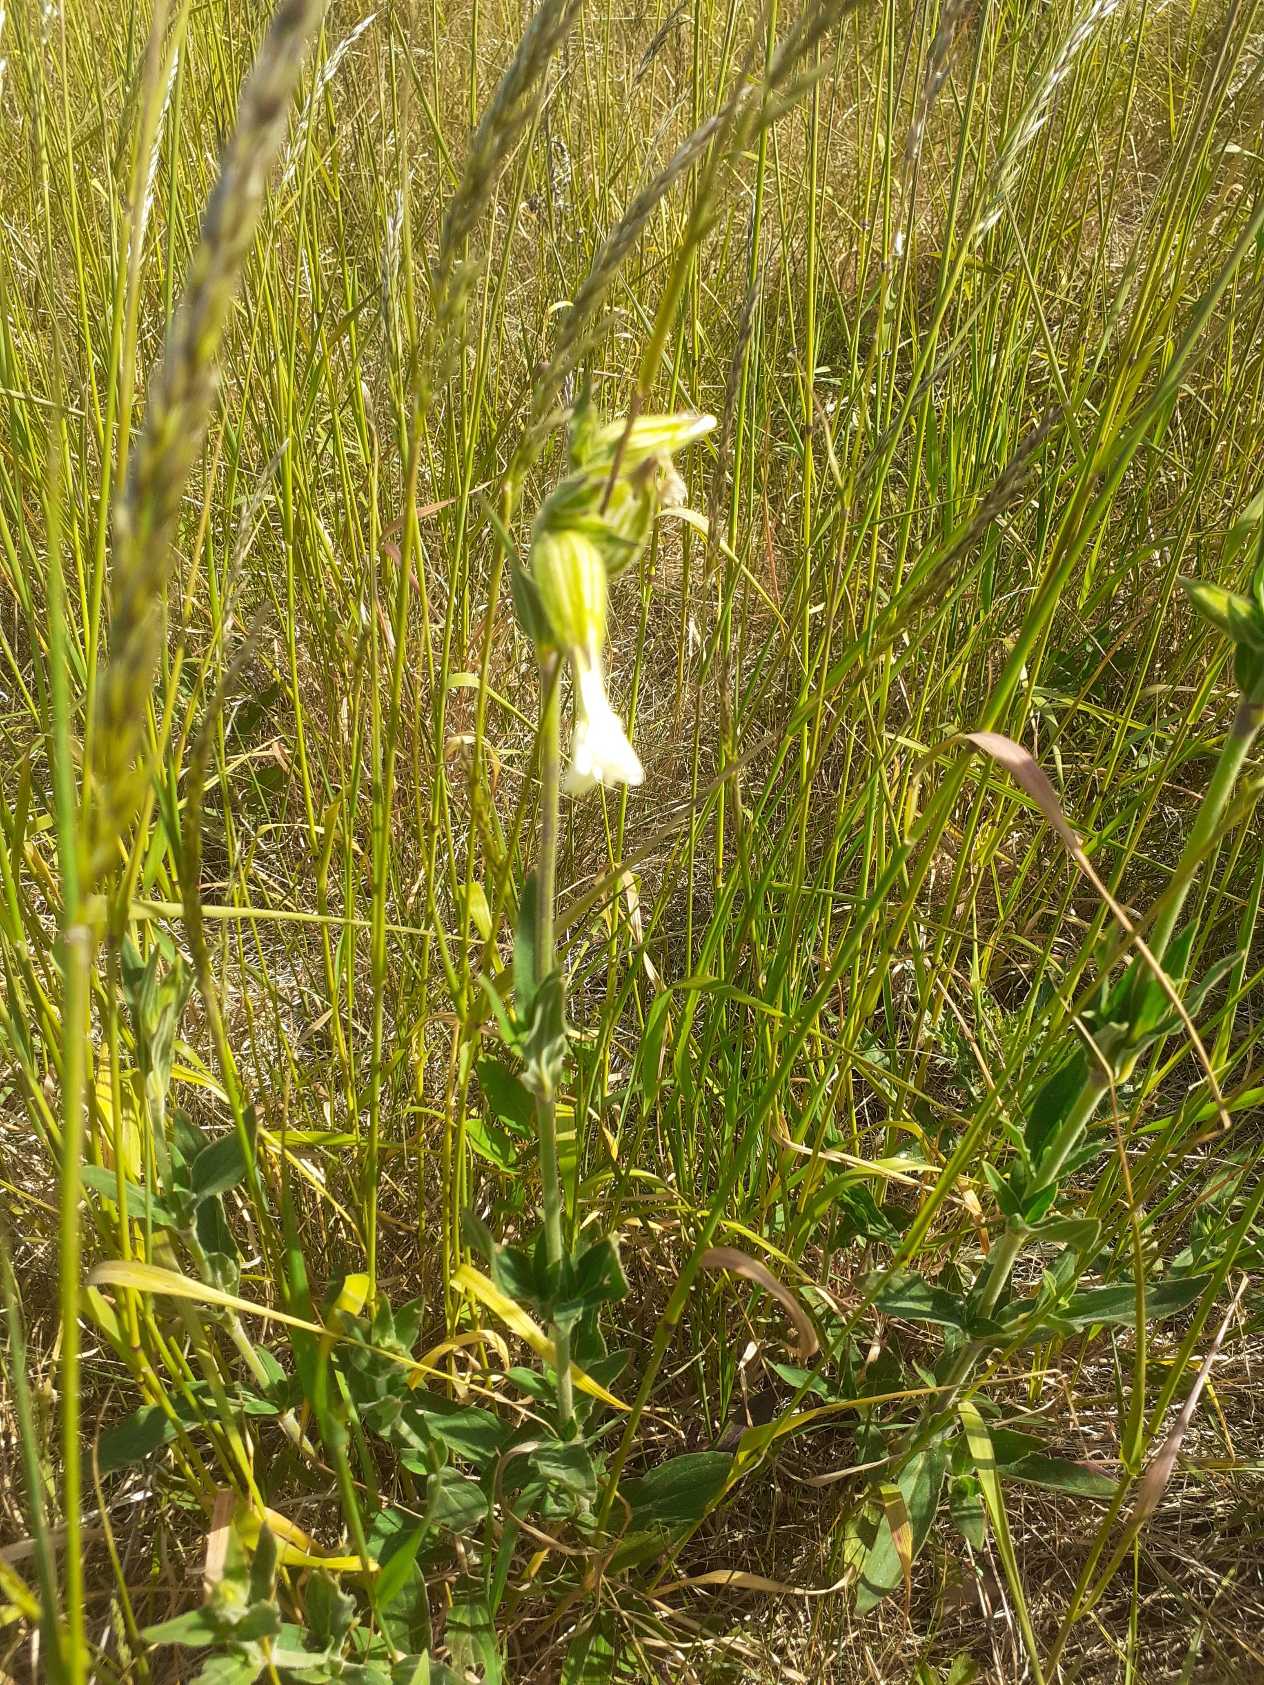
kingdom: Plantae
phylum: Tracheophyta
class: Magnoliopsida
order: Caryophyllales
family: Caryophyllaceae
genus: Silene
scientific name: Silene latifolia
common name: Aftenpragtstjerne
